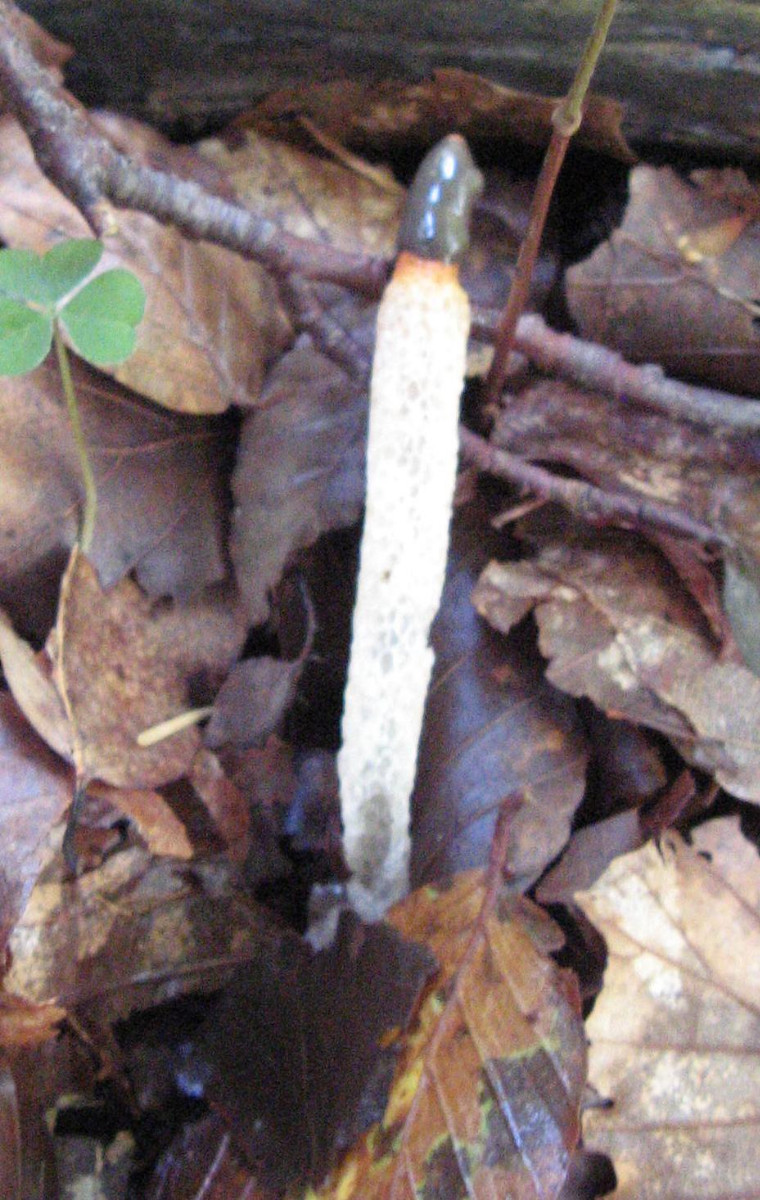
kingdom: Fungi
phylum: Basidiomycota
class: Agaricomycetes
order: Phallales
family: Phallaceae
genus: Mutinus
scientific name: Mutinus caninus
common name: hunde-stinksvamp
